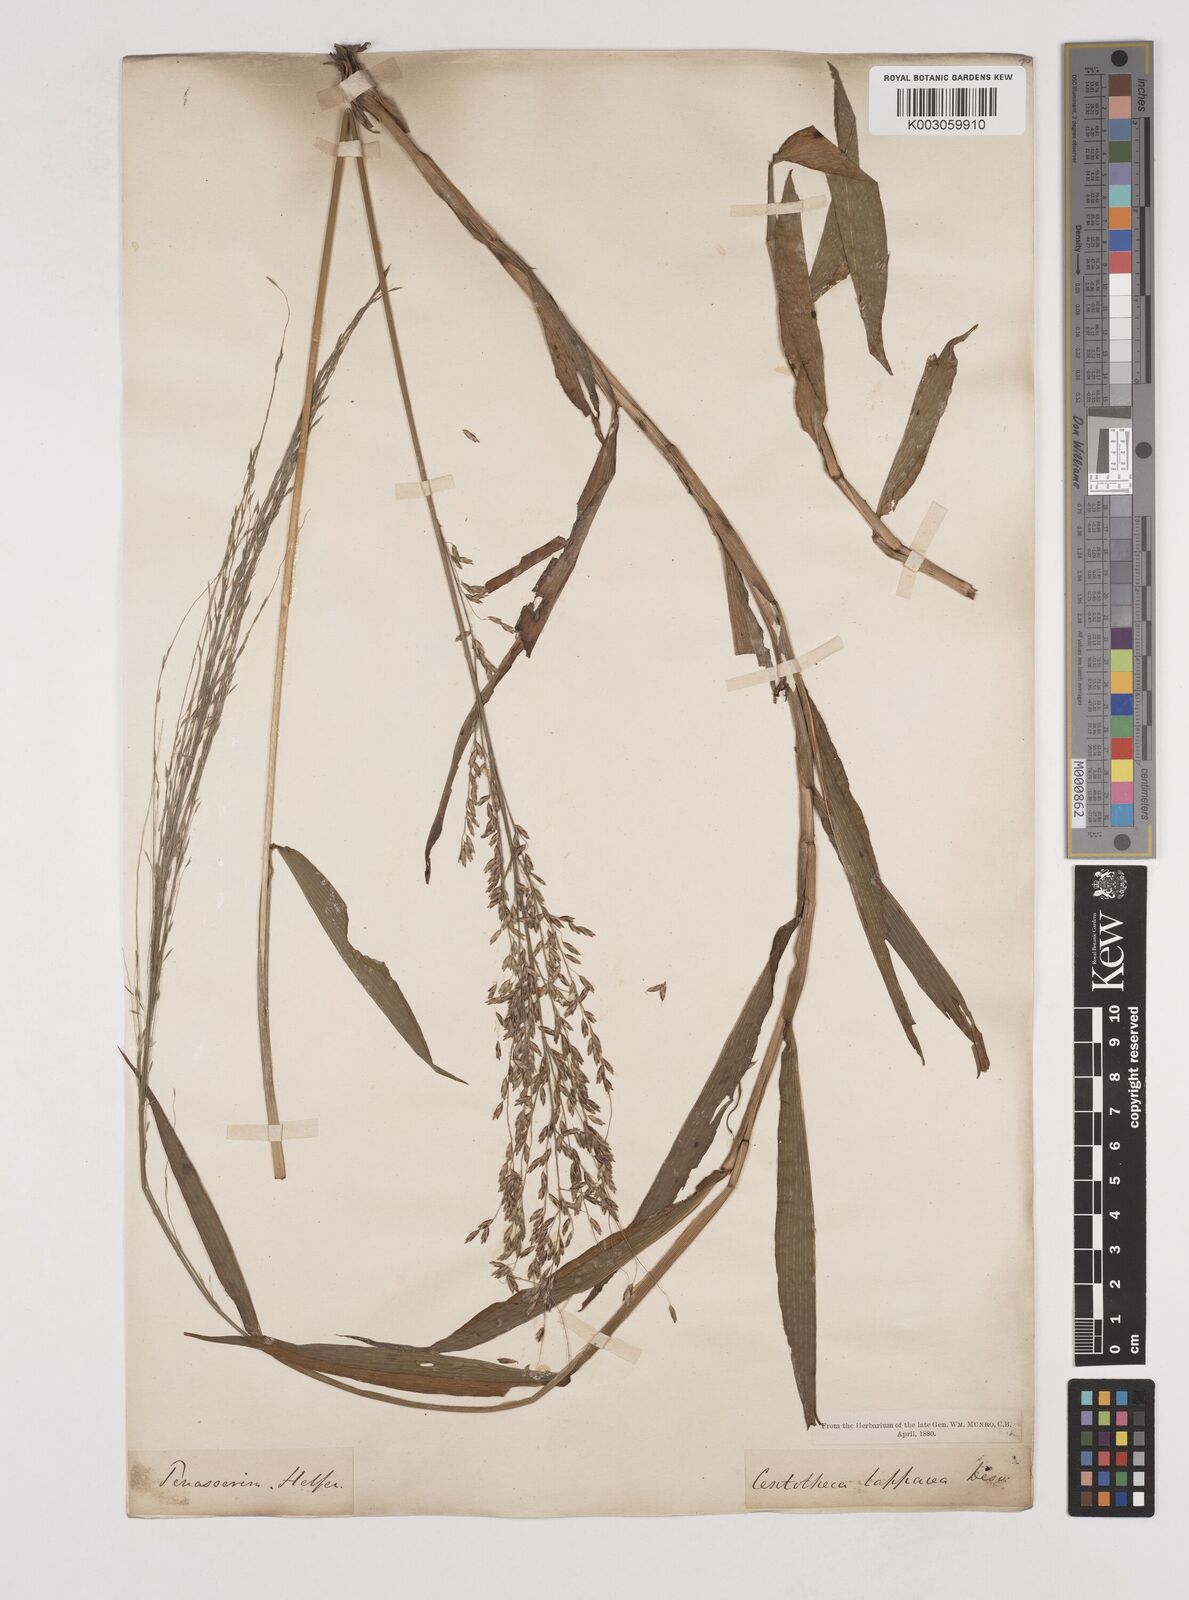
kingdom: Plantae
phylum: Tracheophyta
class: Liliopsida
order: Poales
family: Poaceae
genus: Centotheca
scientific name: Centotheca lappacea
